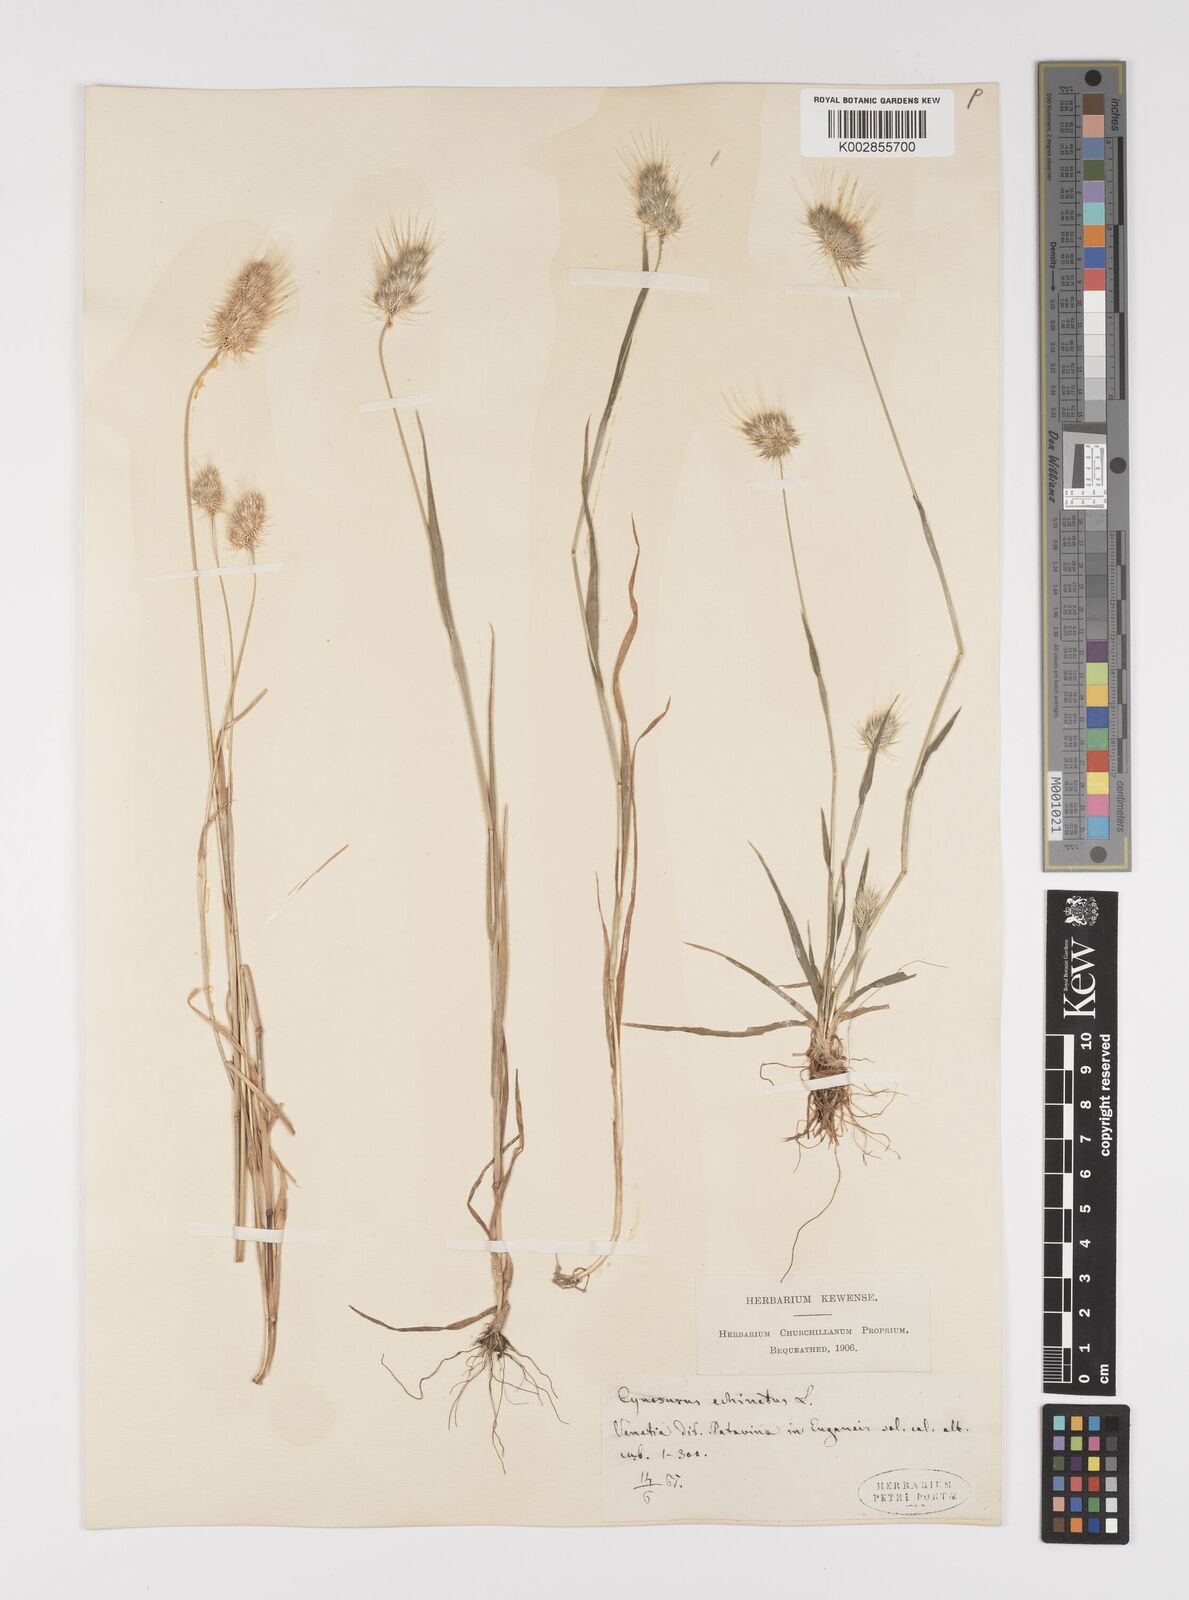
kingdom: Plantae
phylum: Tracheophyta
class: Liliopsida
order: Poales
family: Poaceae
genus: Cynosurus
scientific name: Cynosurus echinatus
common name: Rough dog's-tail
